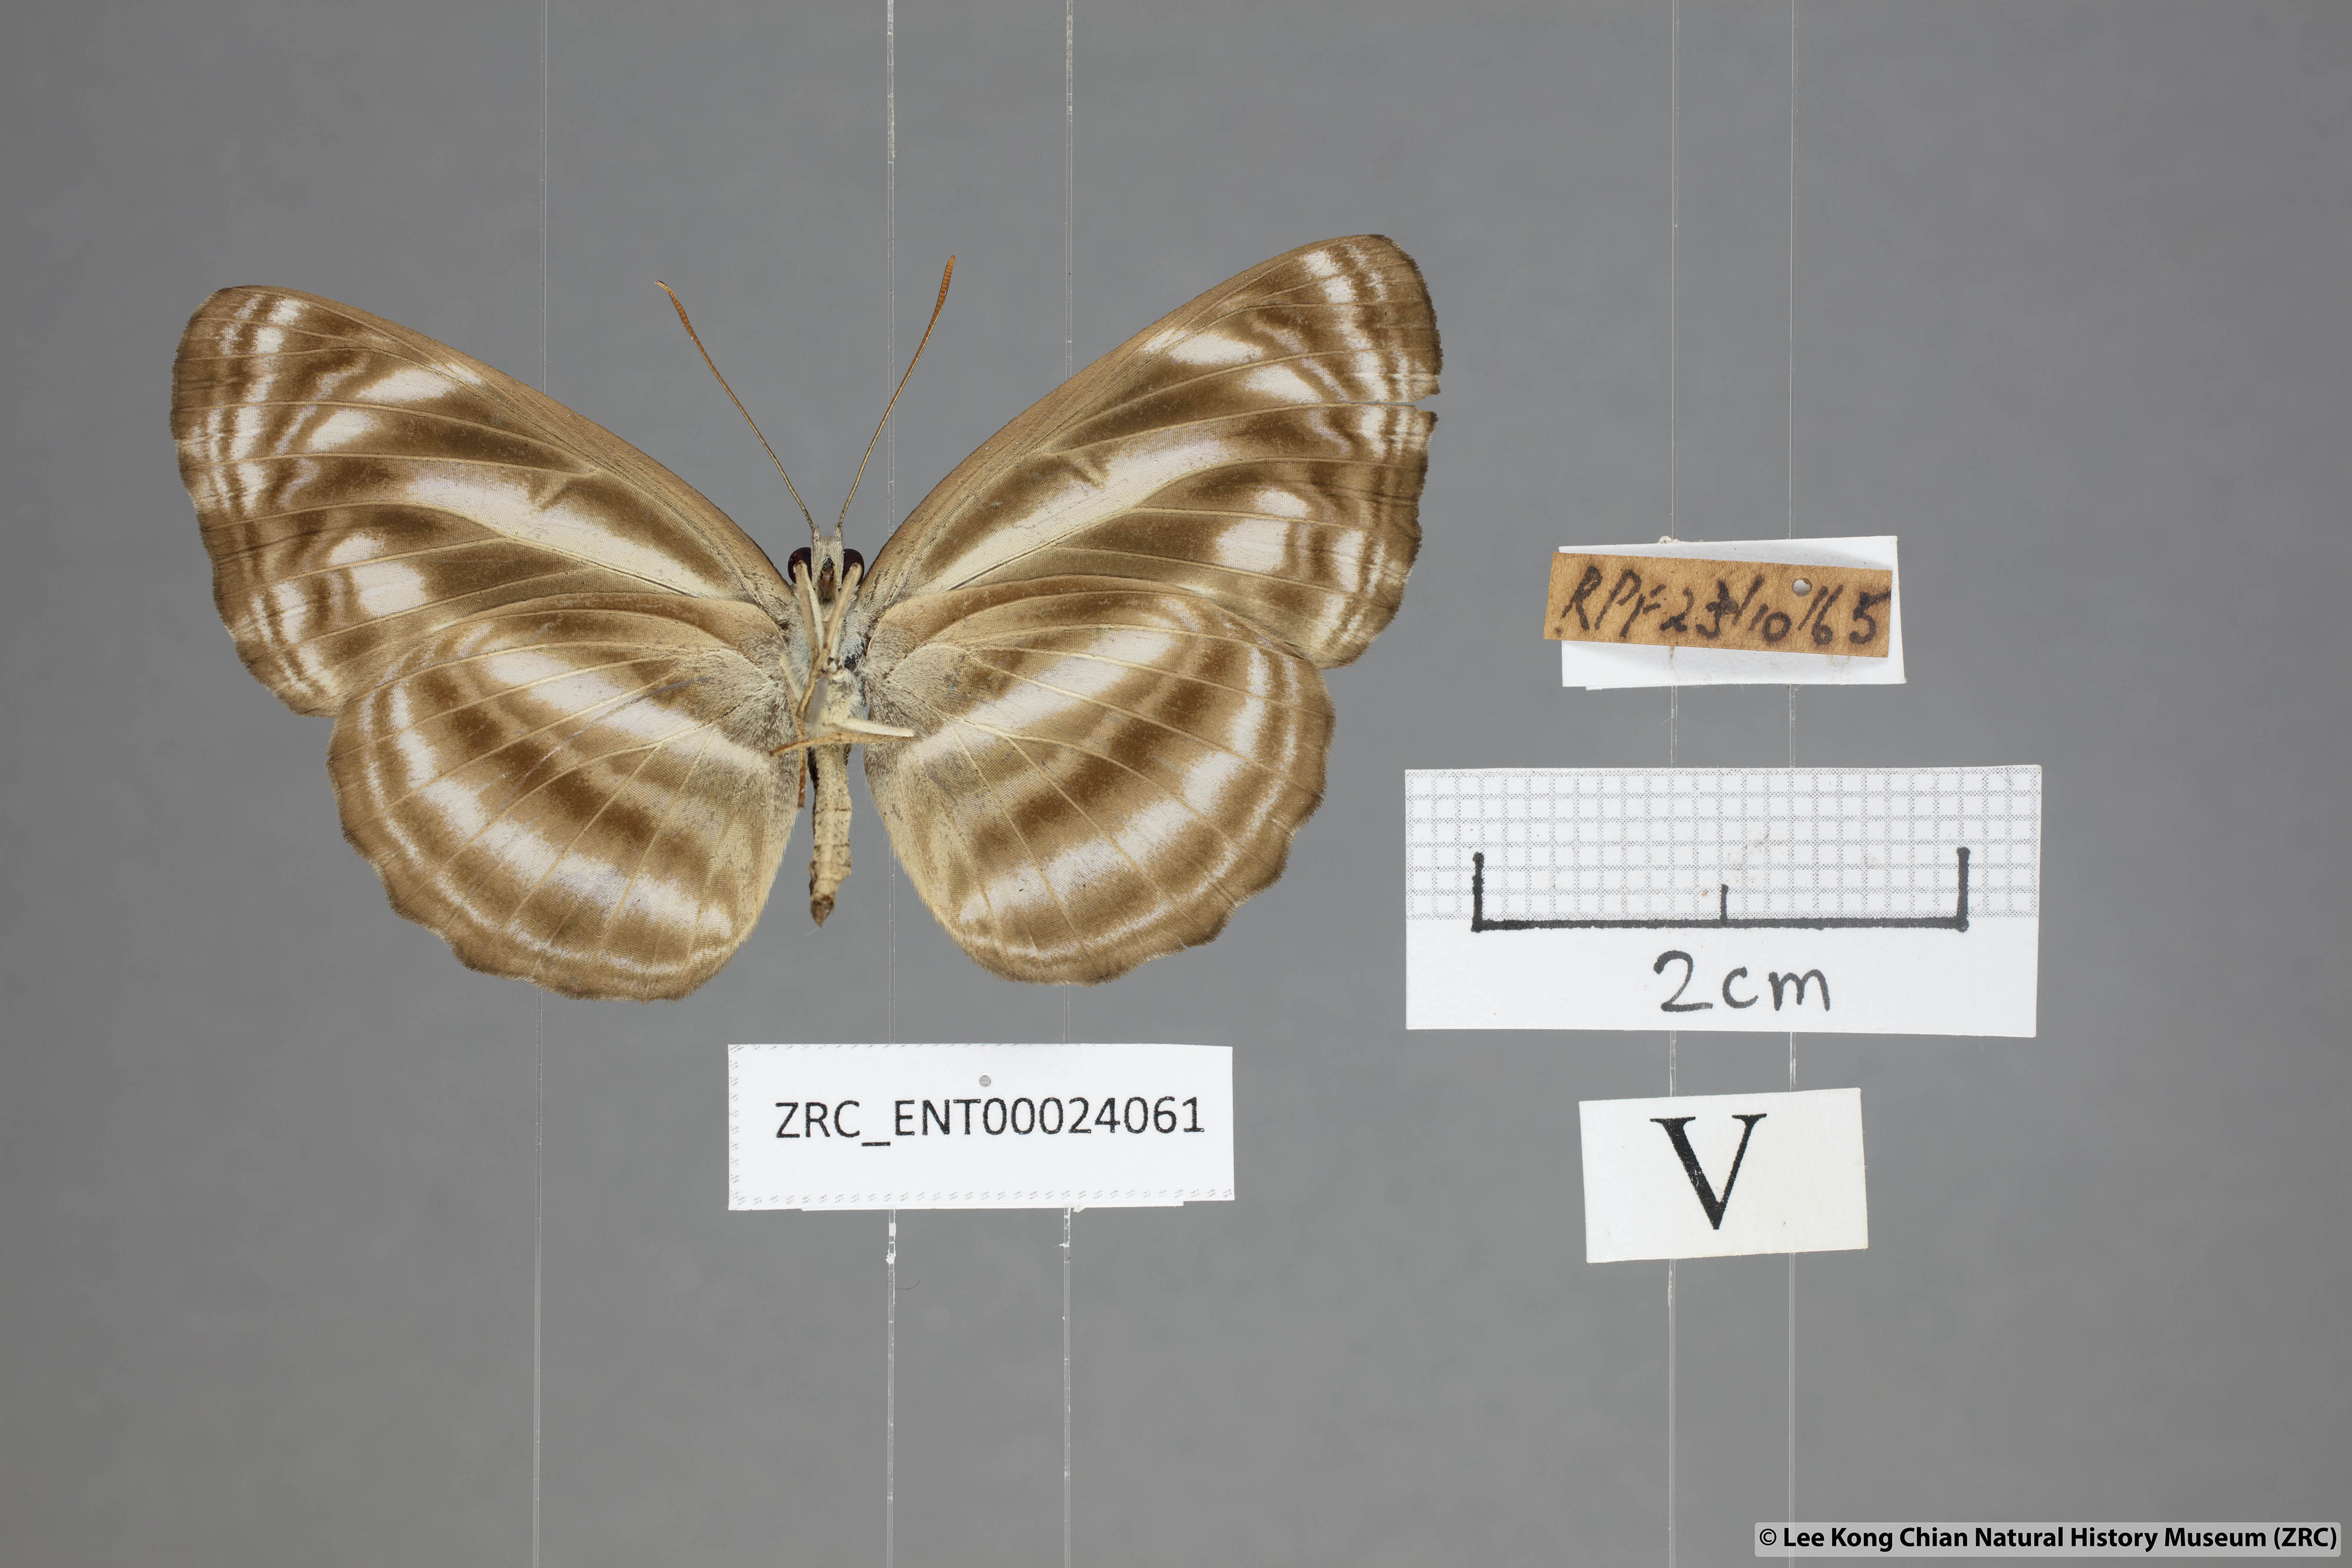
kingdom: Animalia
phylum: Arthropoda
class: Insecta
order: Lepidoptera
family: Nymphalidae
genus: Neptis
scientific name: Neptis omeroda
